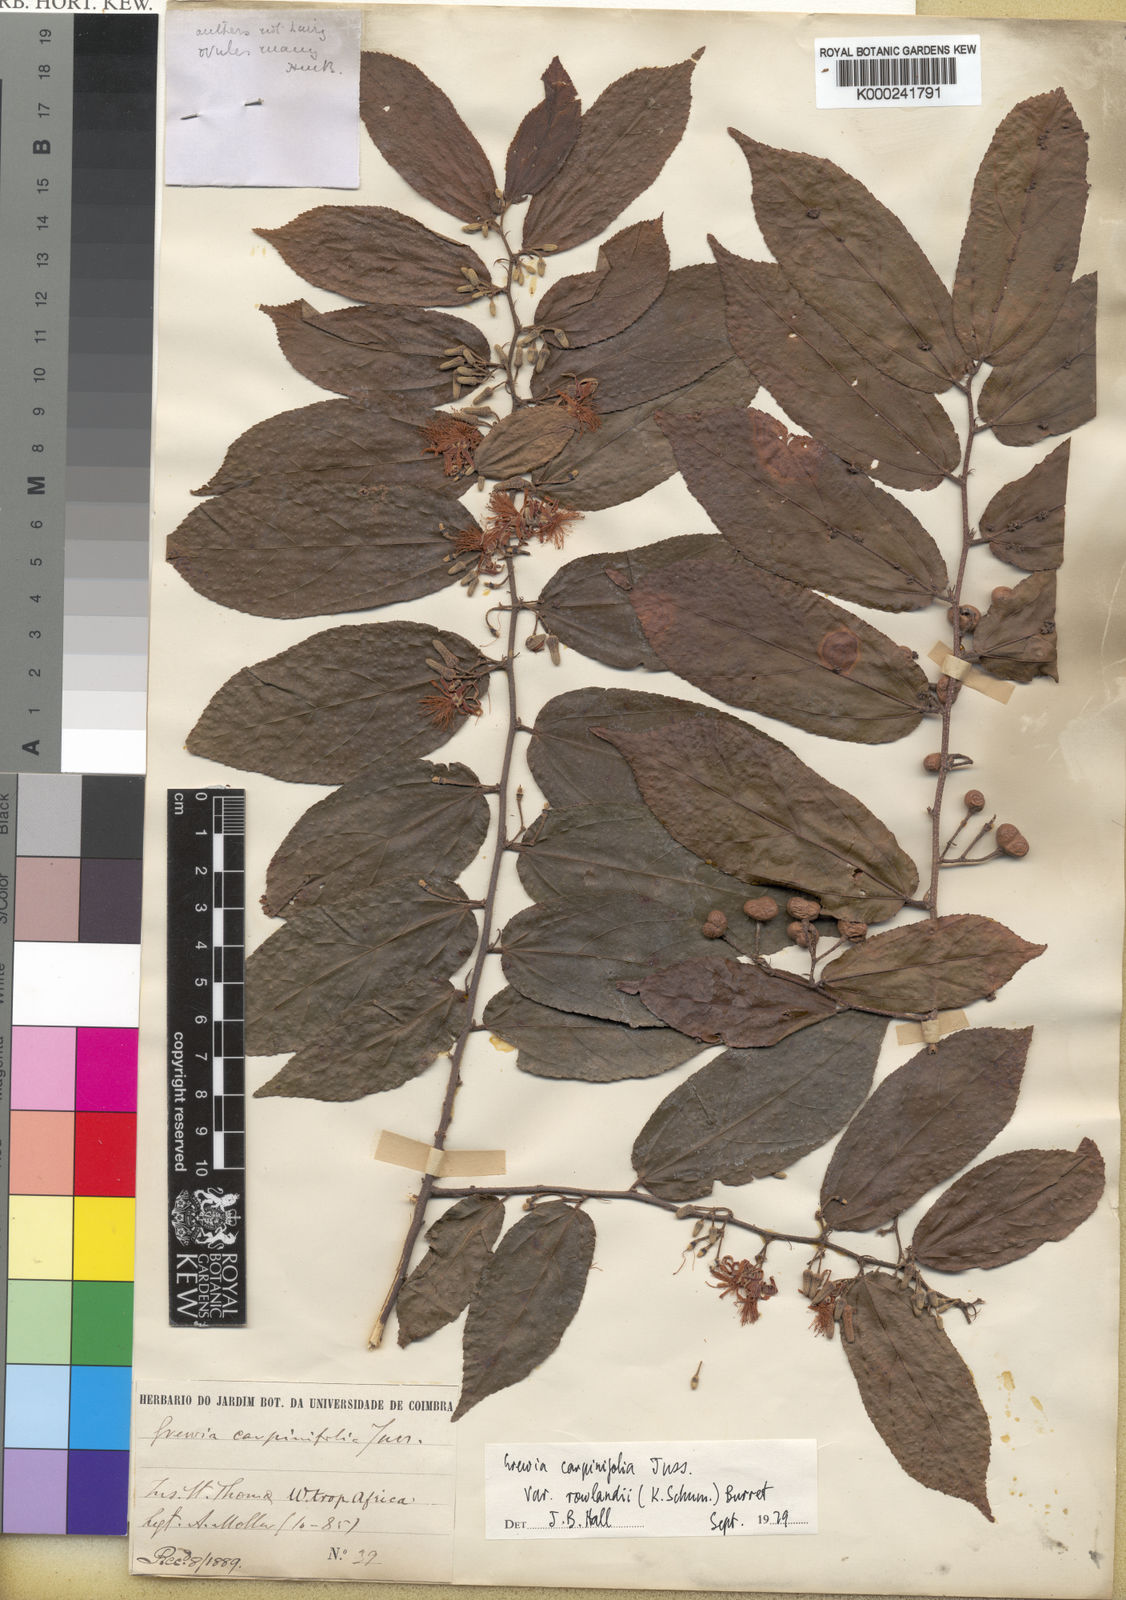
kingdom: Plantae
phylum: Tracheophyta
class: Magnoliopsida
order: Malvales
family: Malvaceae
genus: Grewia
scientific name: Grewia carpinifolia
